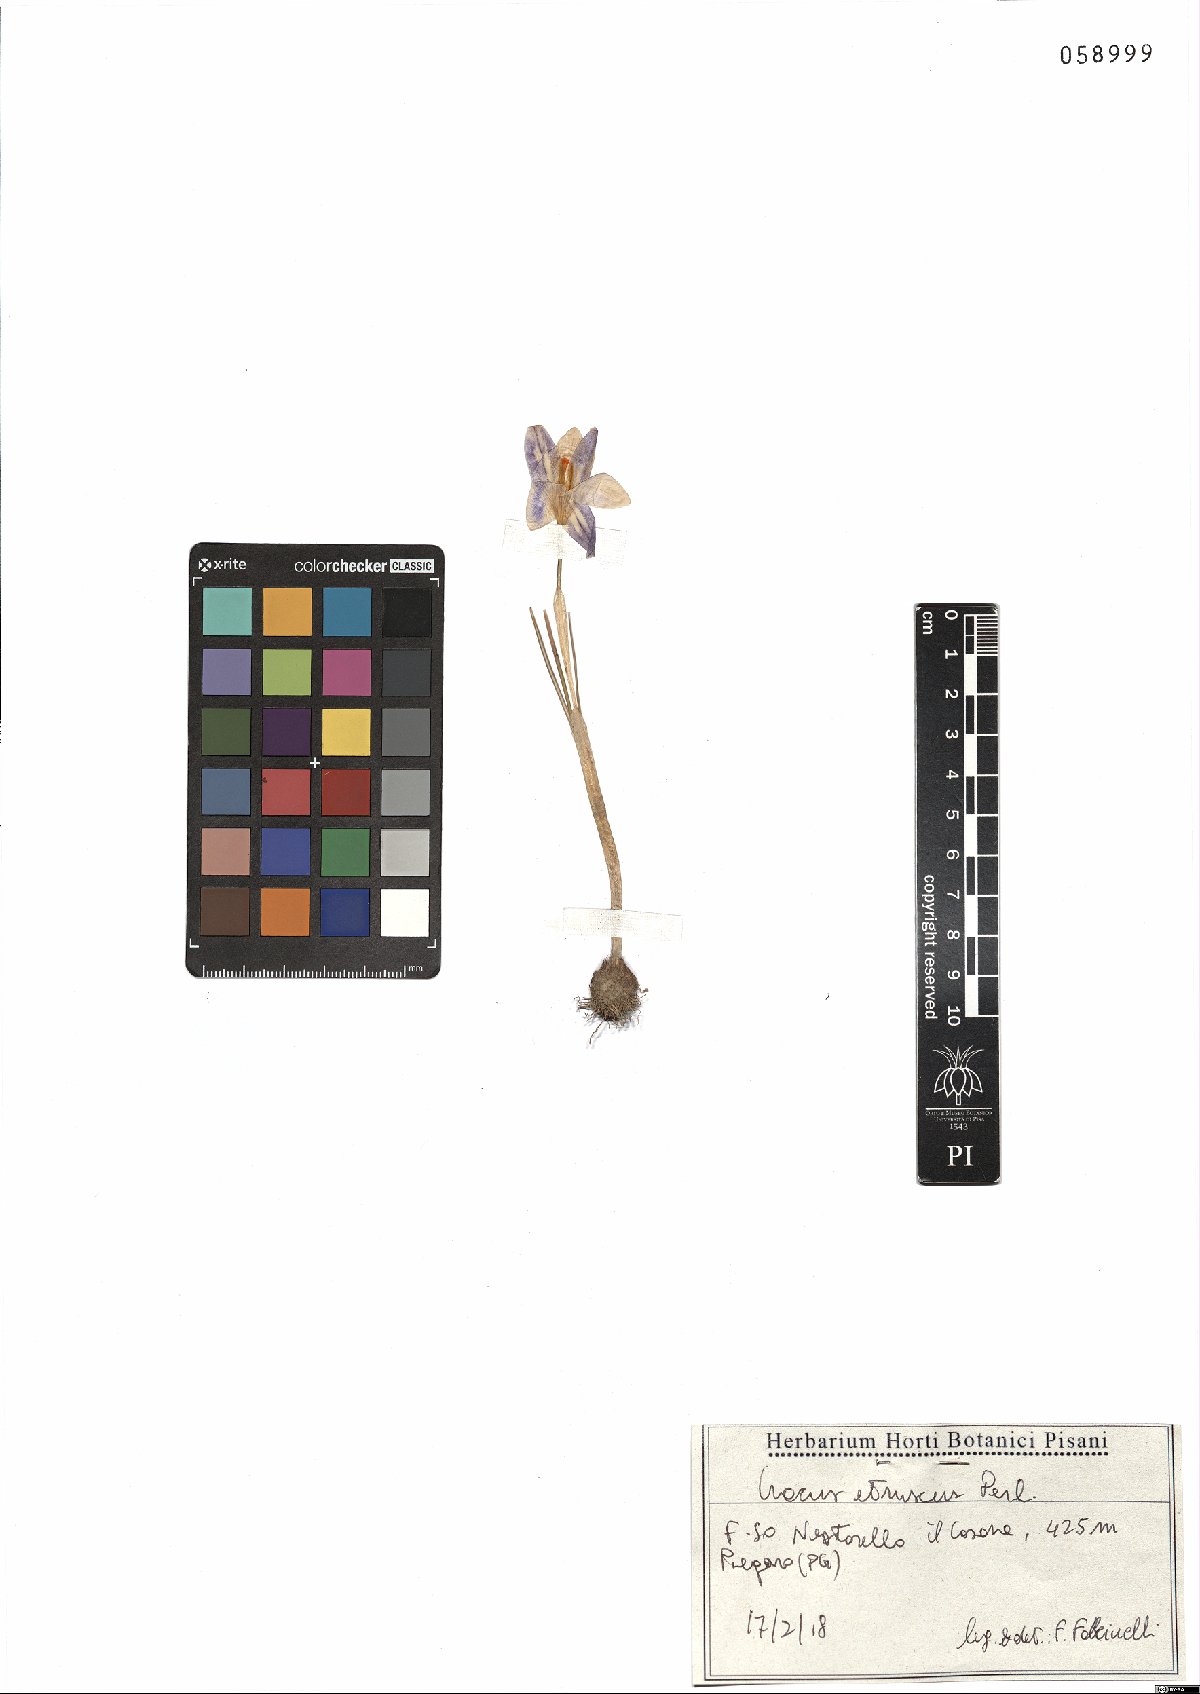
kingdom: Plantae
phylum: Tracheophyta
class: Liliopsida
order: Asparagales
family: Iridaceae
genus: Crocus
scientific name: Crocus etruscus
